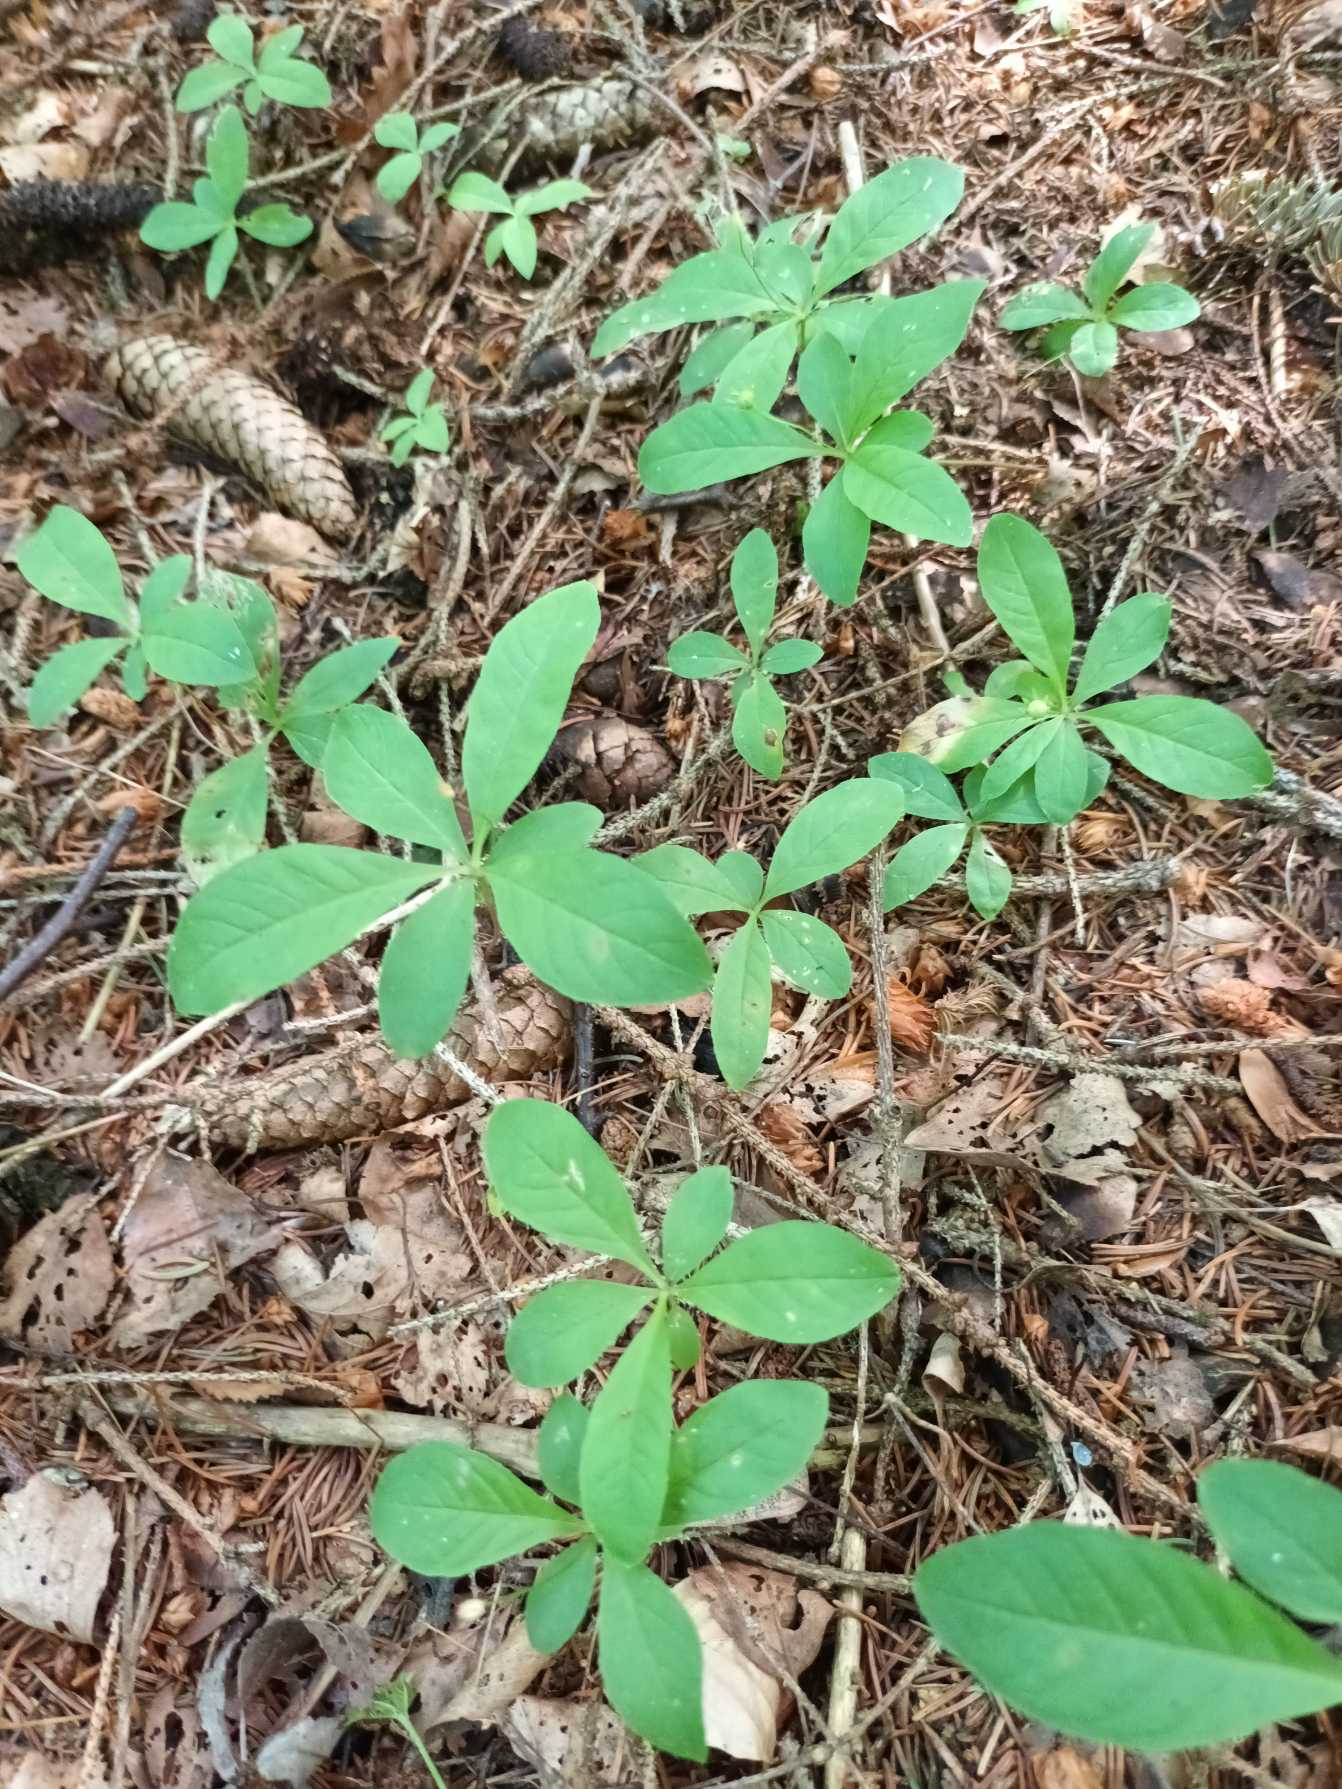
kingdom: Plantae
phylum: Tracheophyta
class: Magnoliopsida
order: Ericales
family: Primulaceae
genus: Lysimachia
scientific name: Lysimachia europaea
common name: Skovstjerne
